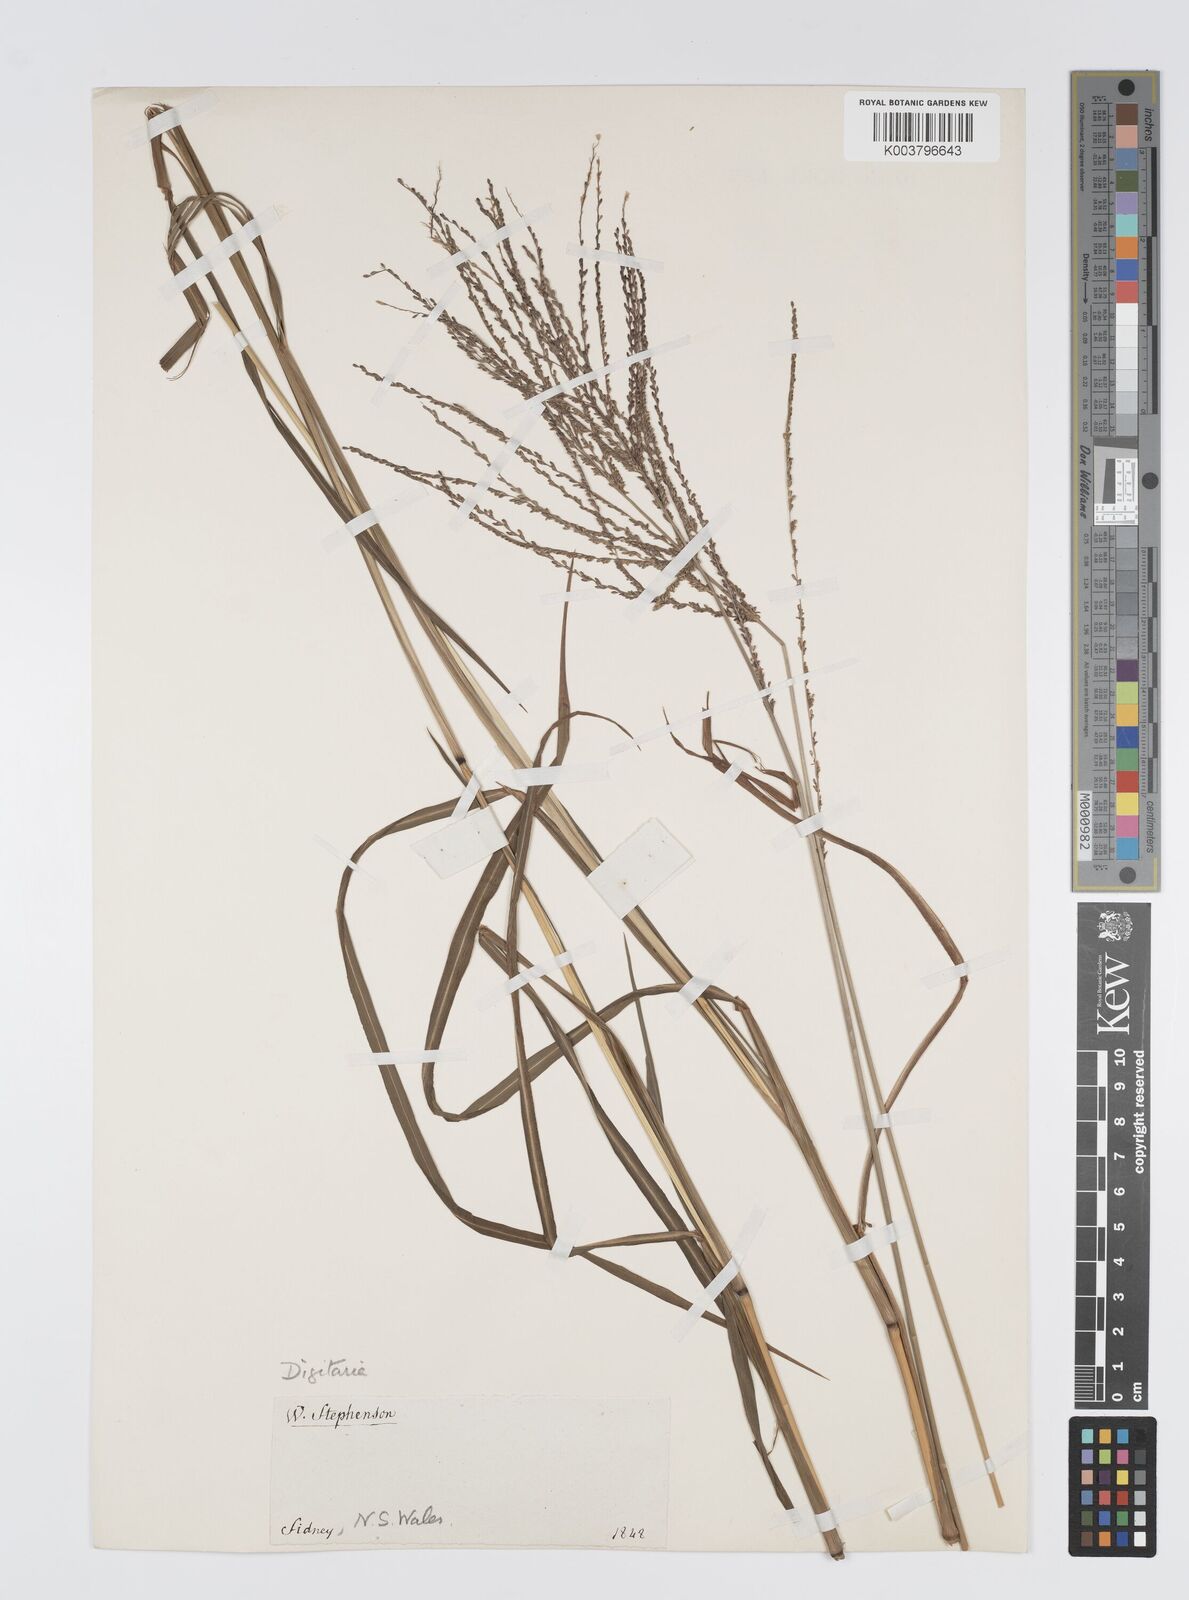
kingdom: Plantae
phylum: Tracheophyta
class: Liliopsida
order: Poales
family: Poaceae
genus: Digitaria
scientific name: Digitaria parviflora
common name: Small-flower finger grass
